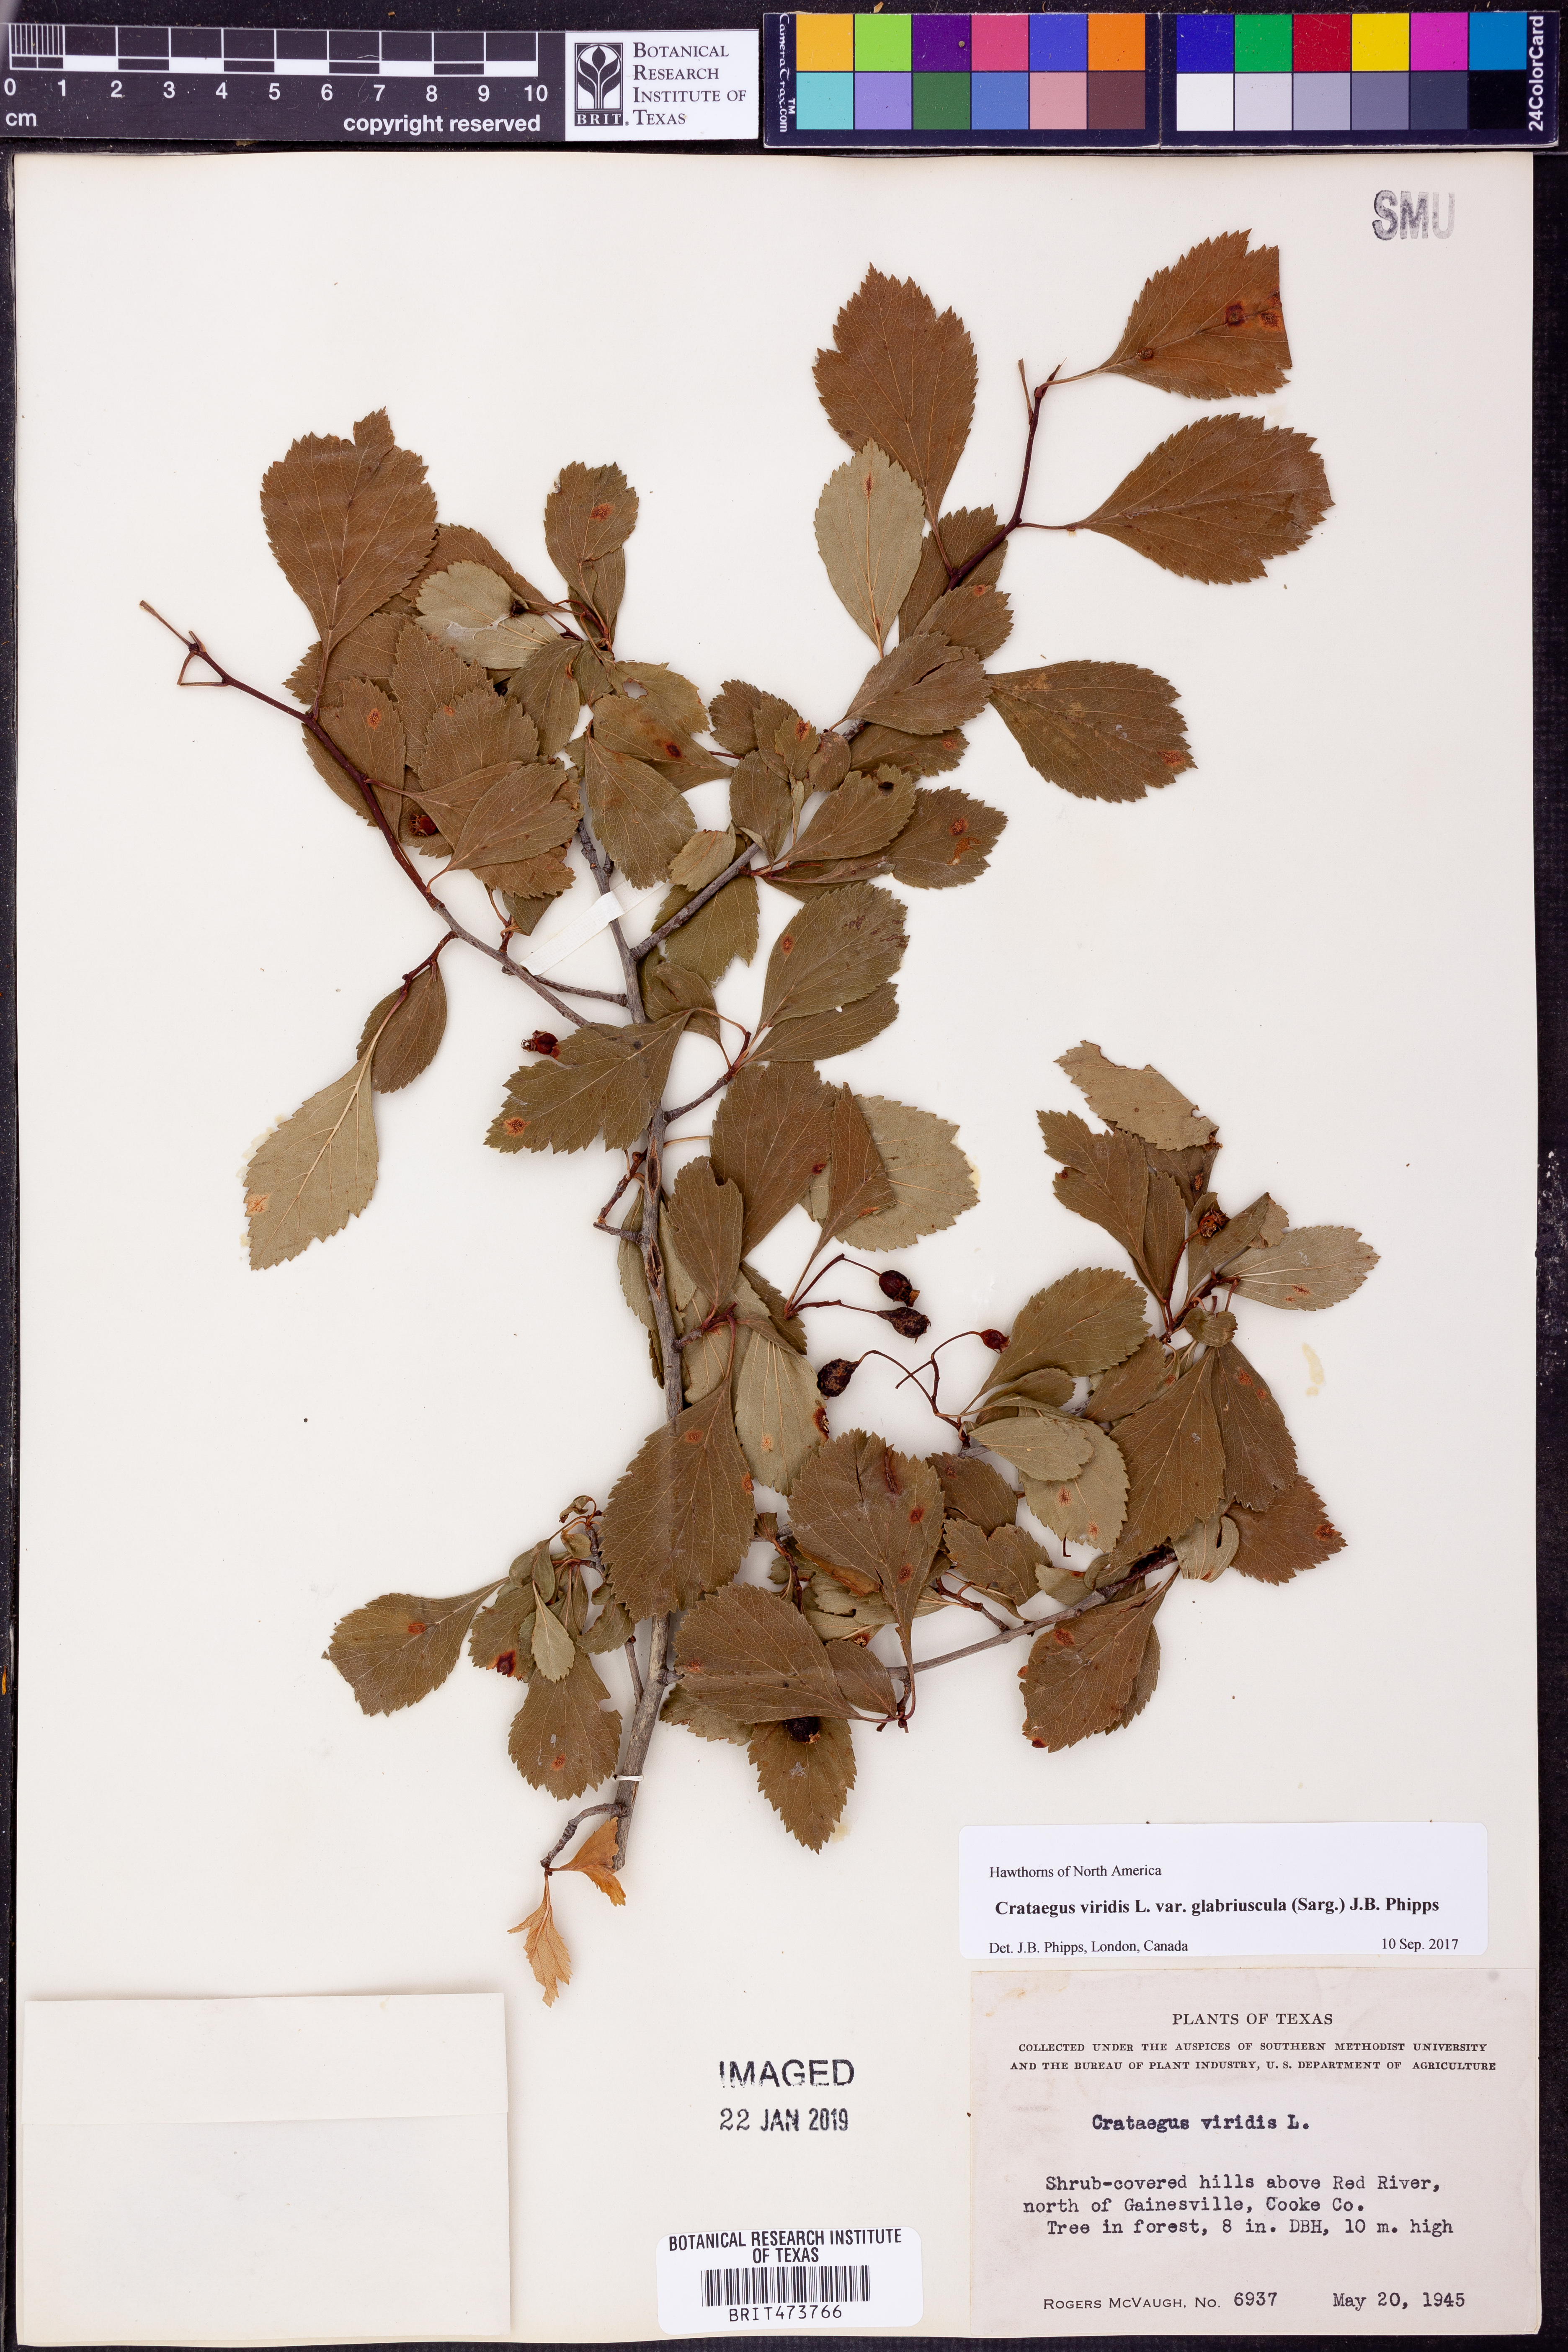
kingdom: Plantae
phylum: Tracheophyta
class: Magnoliopsida
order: Rosales
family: Rosaceae
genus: Crataegus
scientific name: Crataegus viridis
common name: Southernthorn
